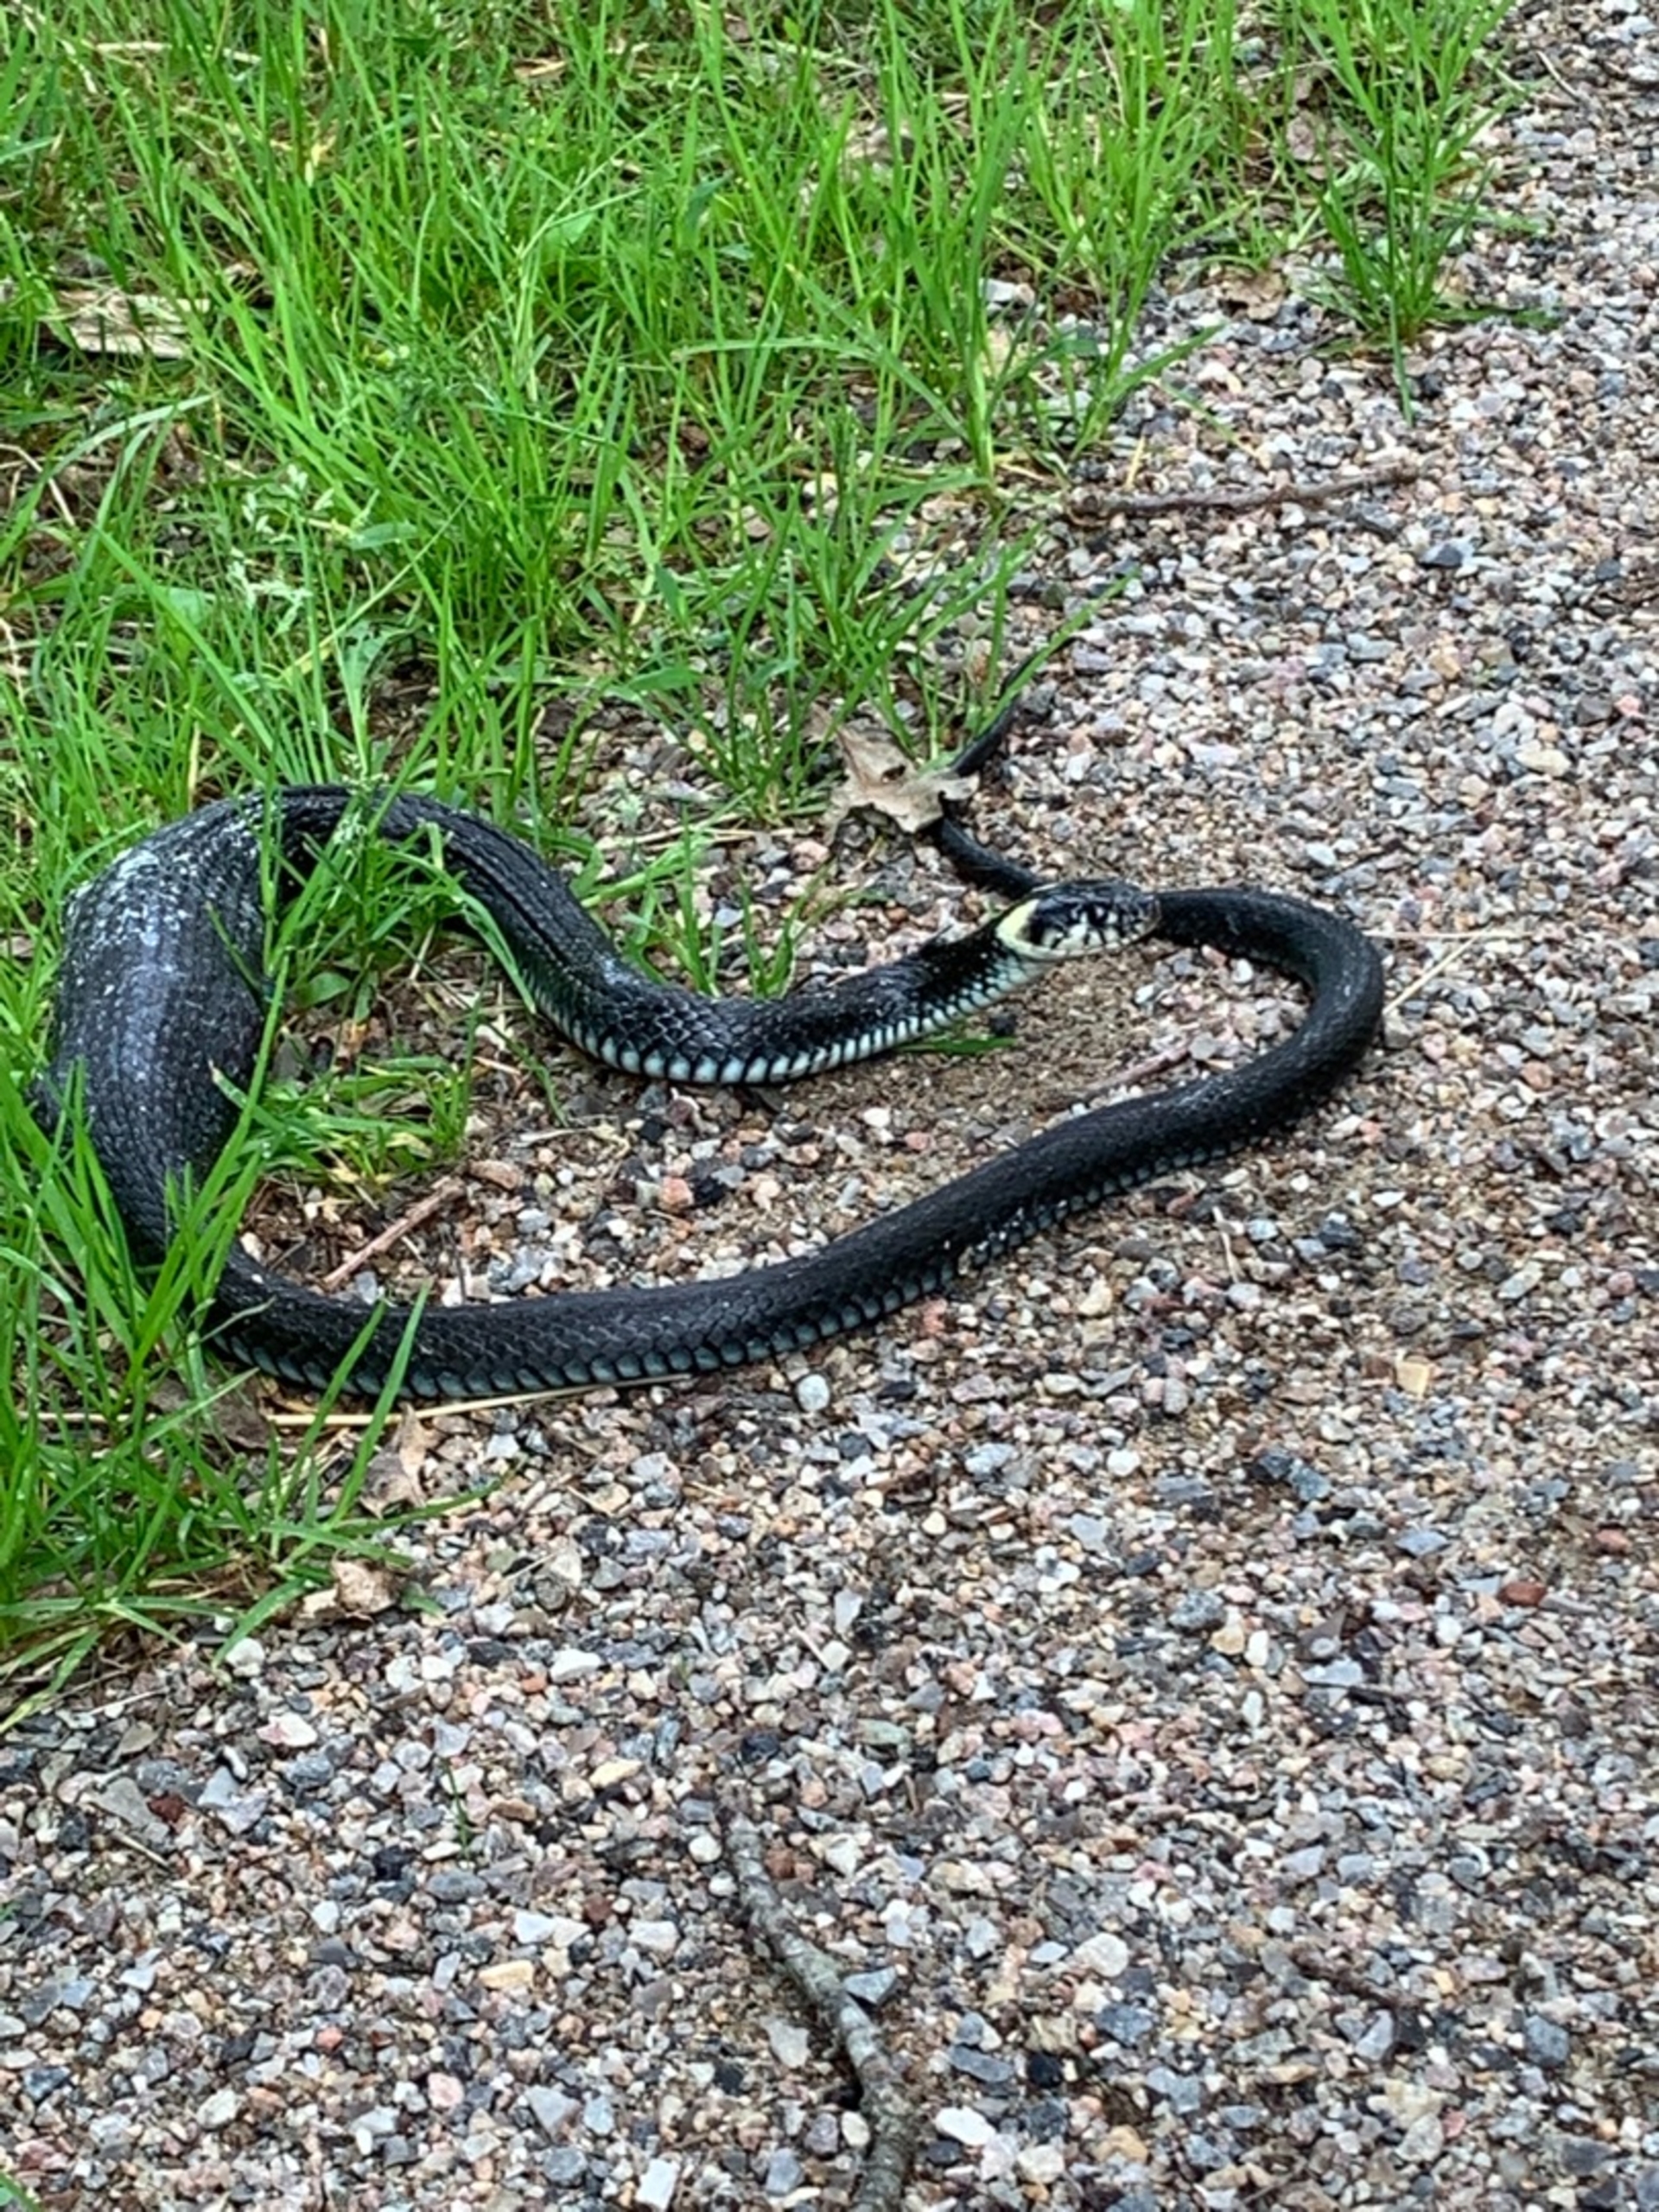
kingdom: Animalia
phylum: Chordata
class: Squamata
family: Colubridae
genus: Natrix
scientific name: Natrix natrix
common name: Snog
